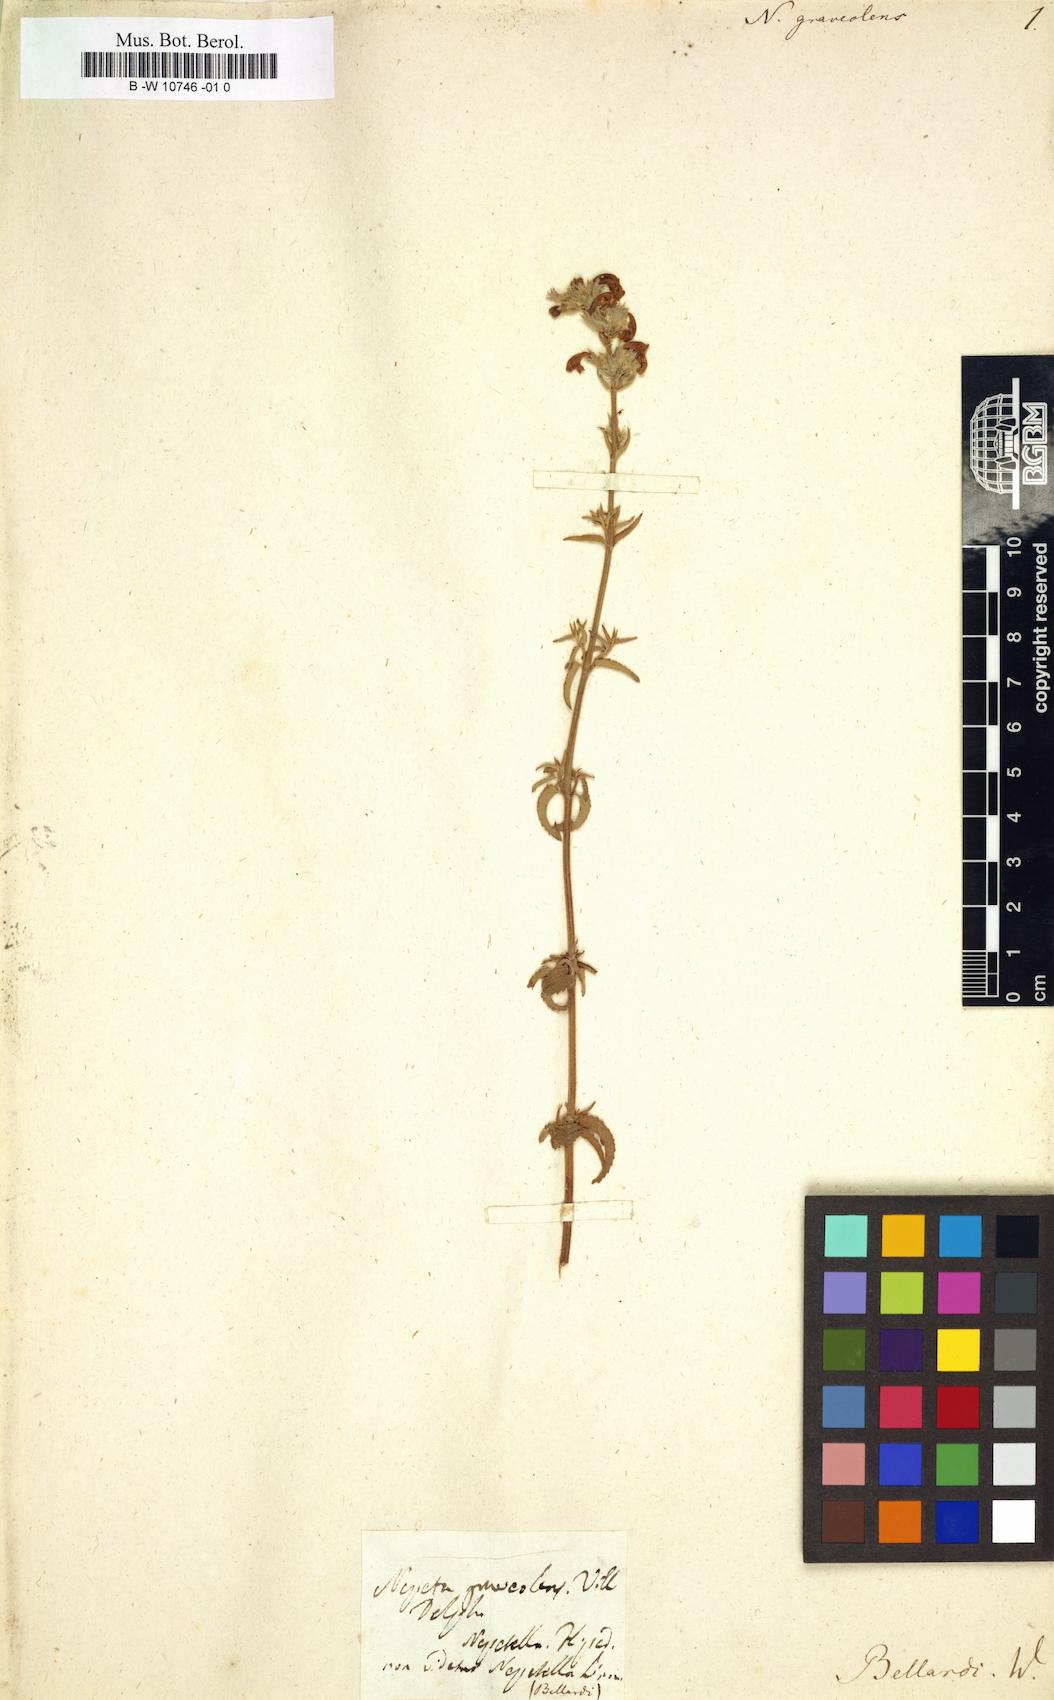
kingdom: Plantae
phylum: Tracheophyta
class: Magnoliopsida
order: Lamiales
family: Lamiaceae
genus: Nepeta
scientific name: Nepeta nepetella
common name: Lesser catmint
